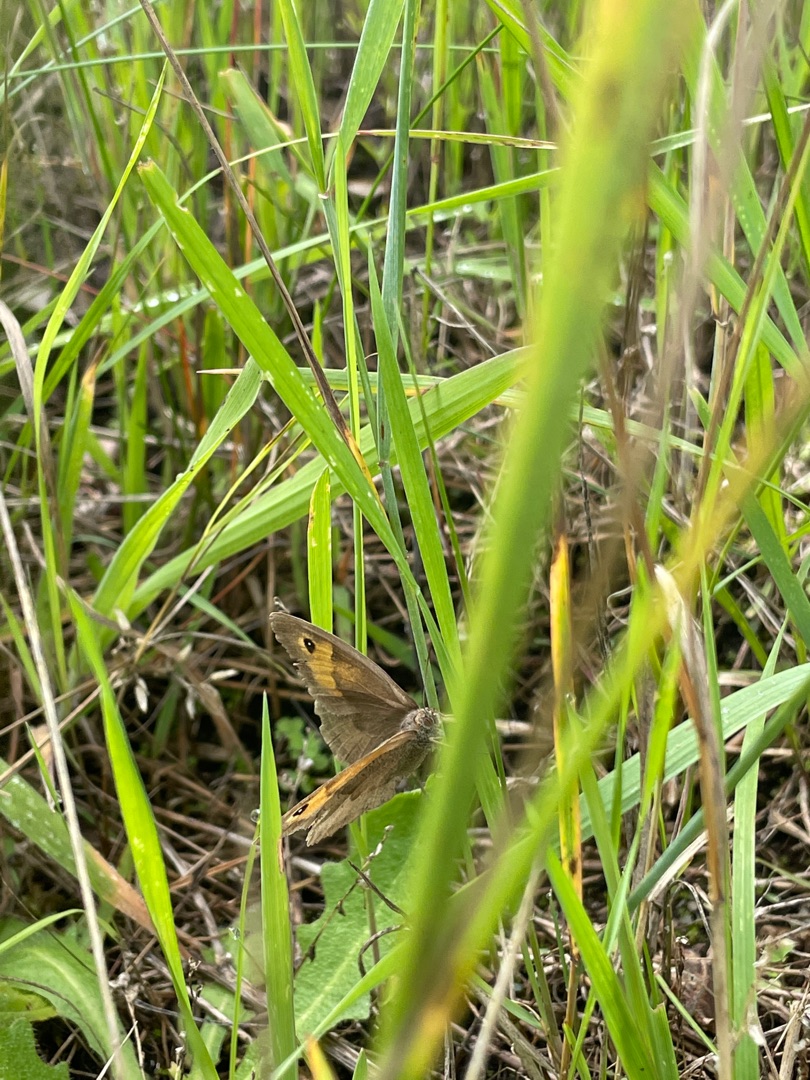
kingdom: Animalia
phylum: Arthropoda
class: Insecta
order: Lepidoptera
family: Nymphalidae
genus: Maniola
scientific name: Maniola jurtina
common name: Græsrandøje
